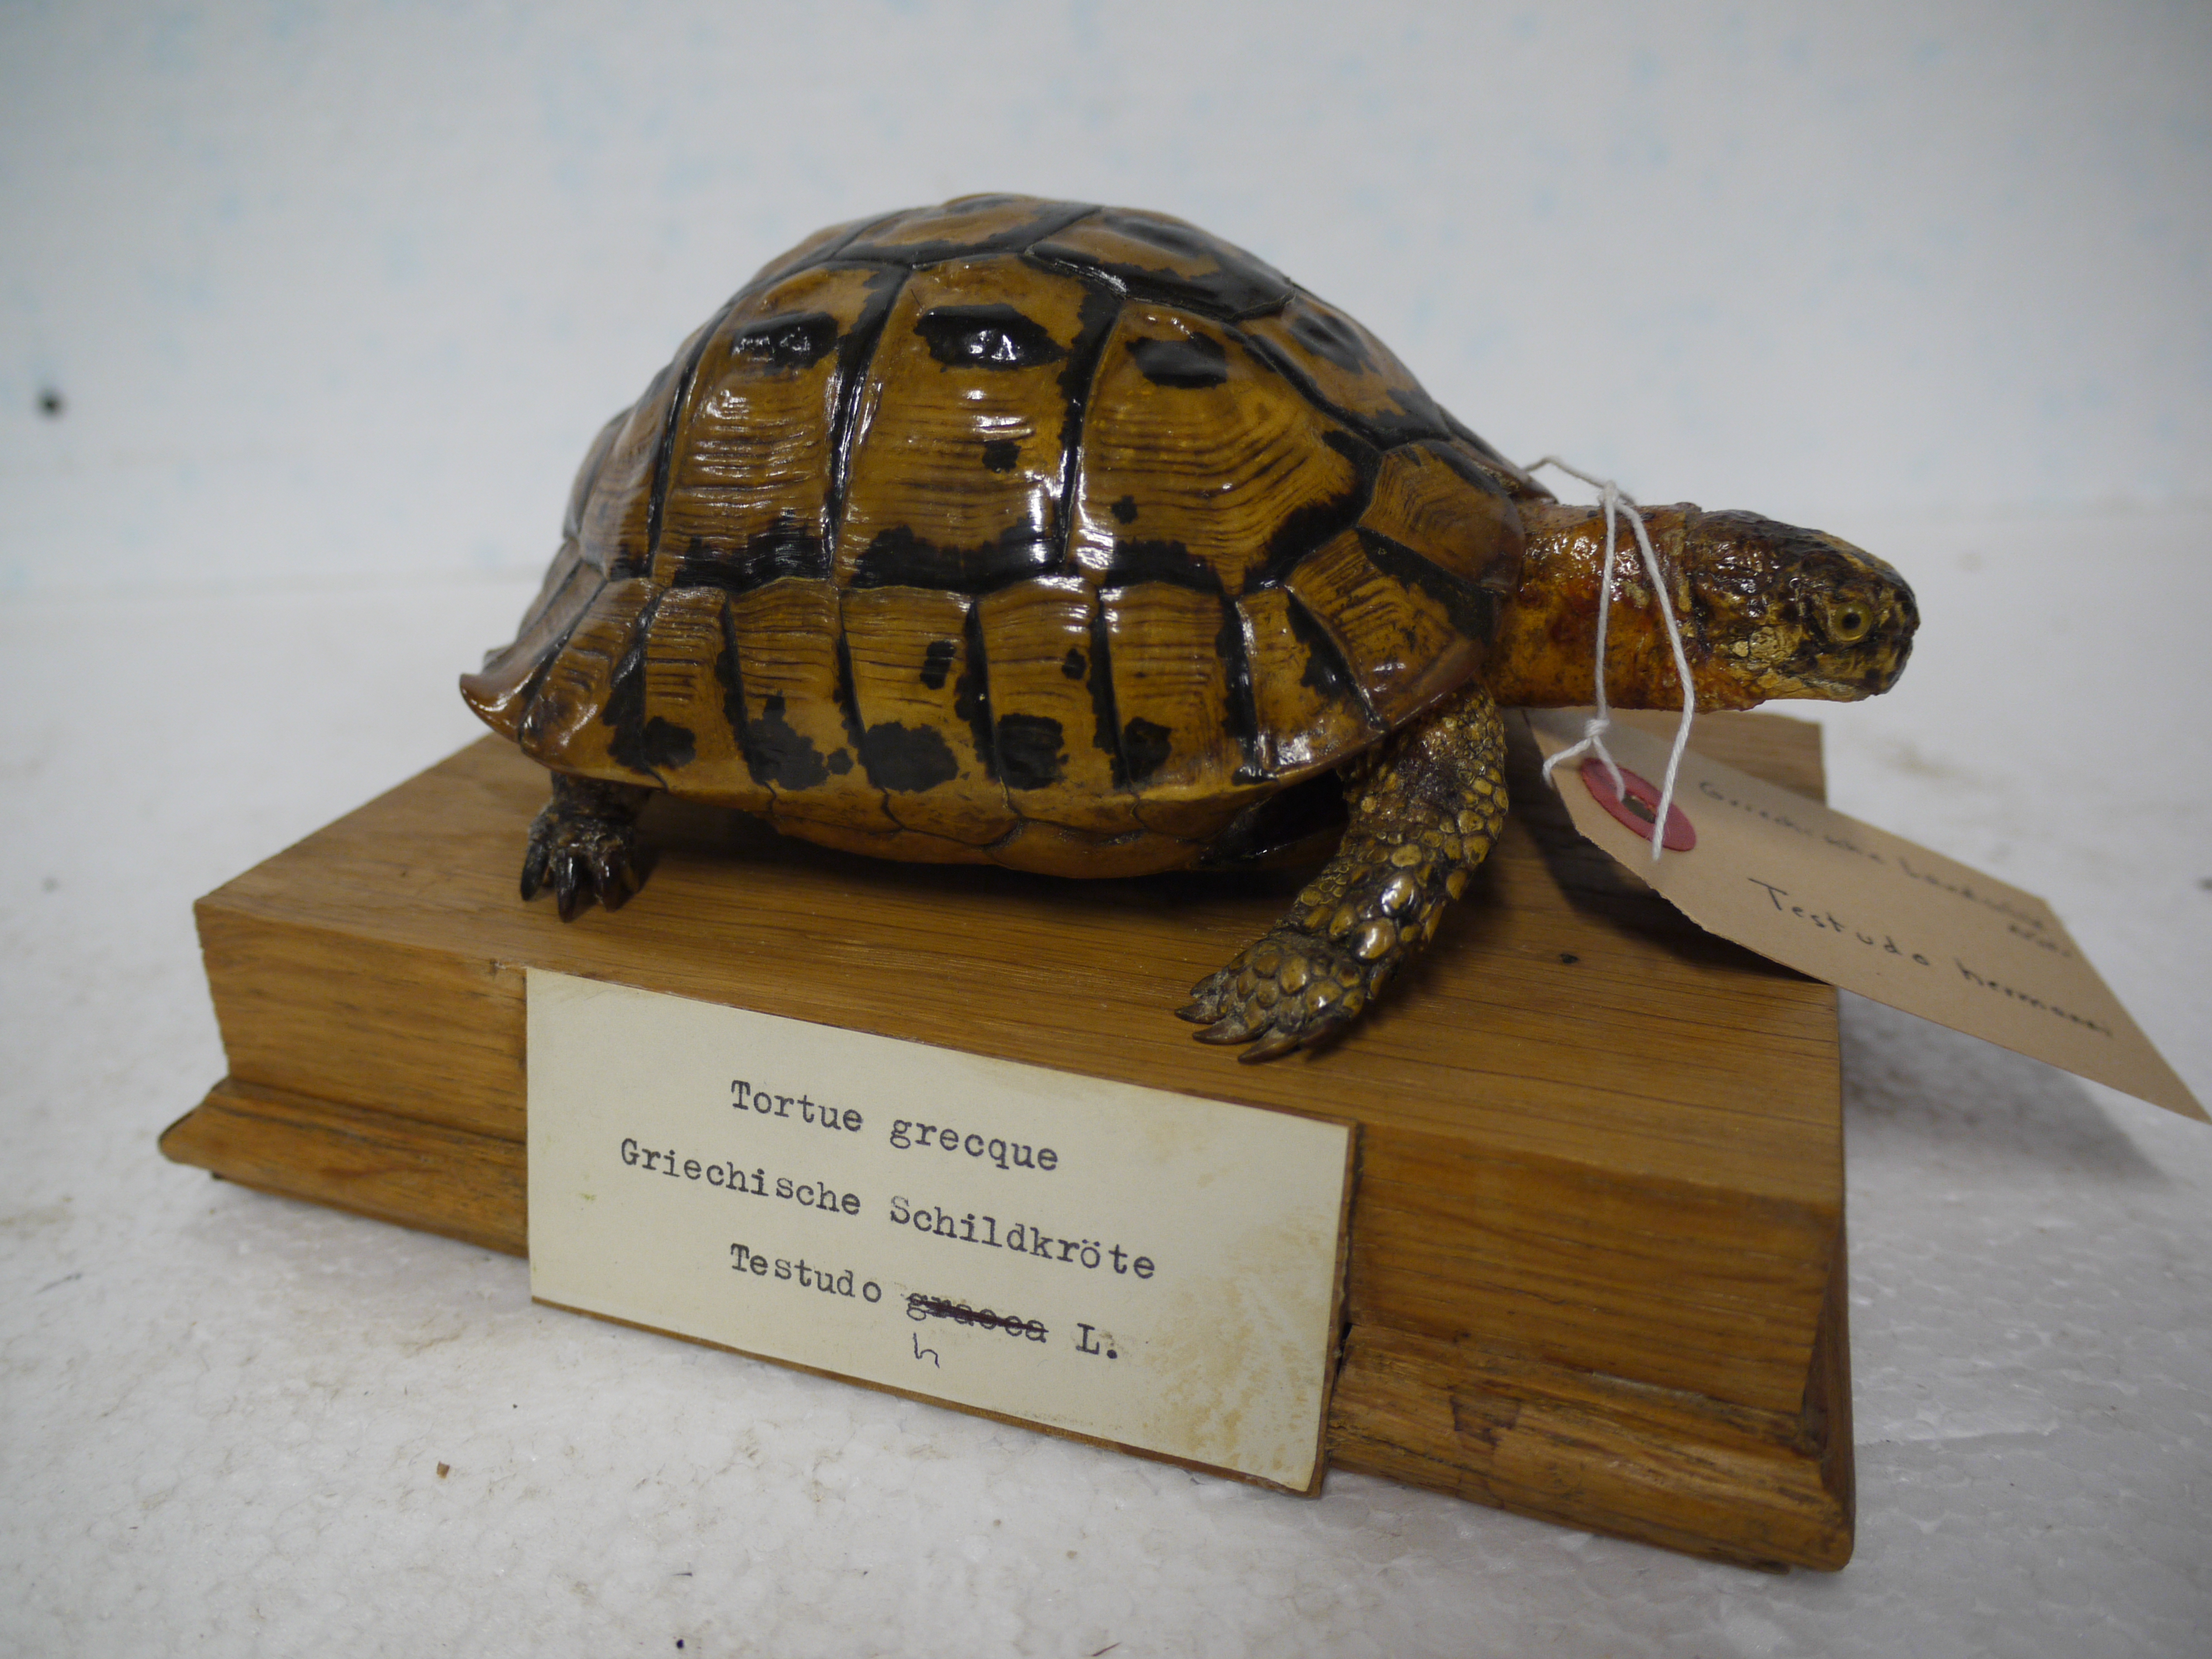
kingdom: Animalia
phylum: Chordata
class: Testudines
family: Testudinidae
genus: Testudo
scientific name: Testudo hermanni
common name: Hermann's tortoise
